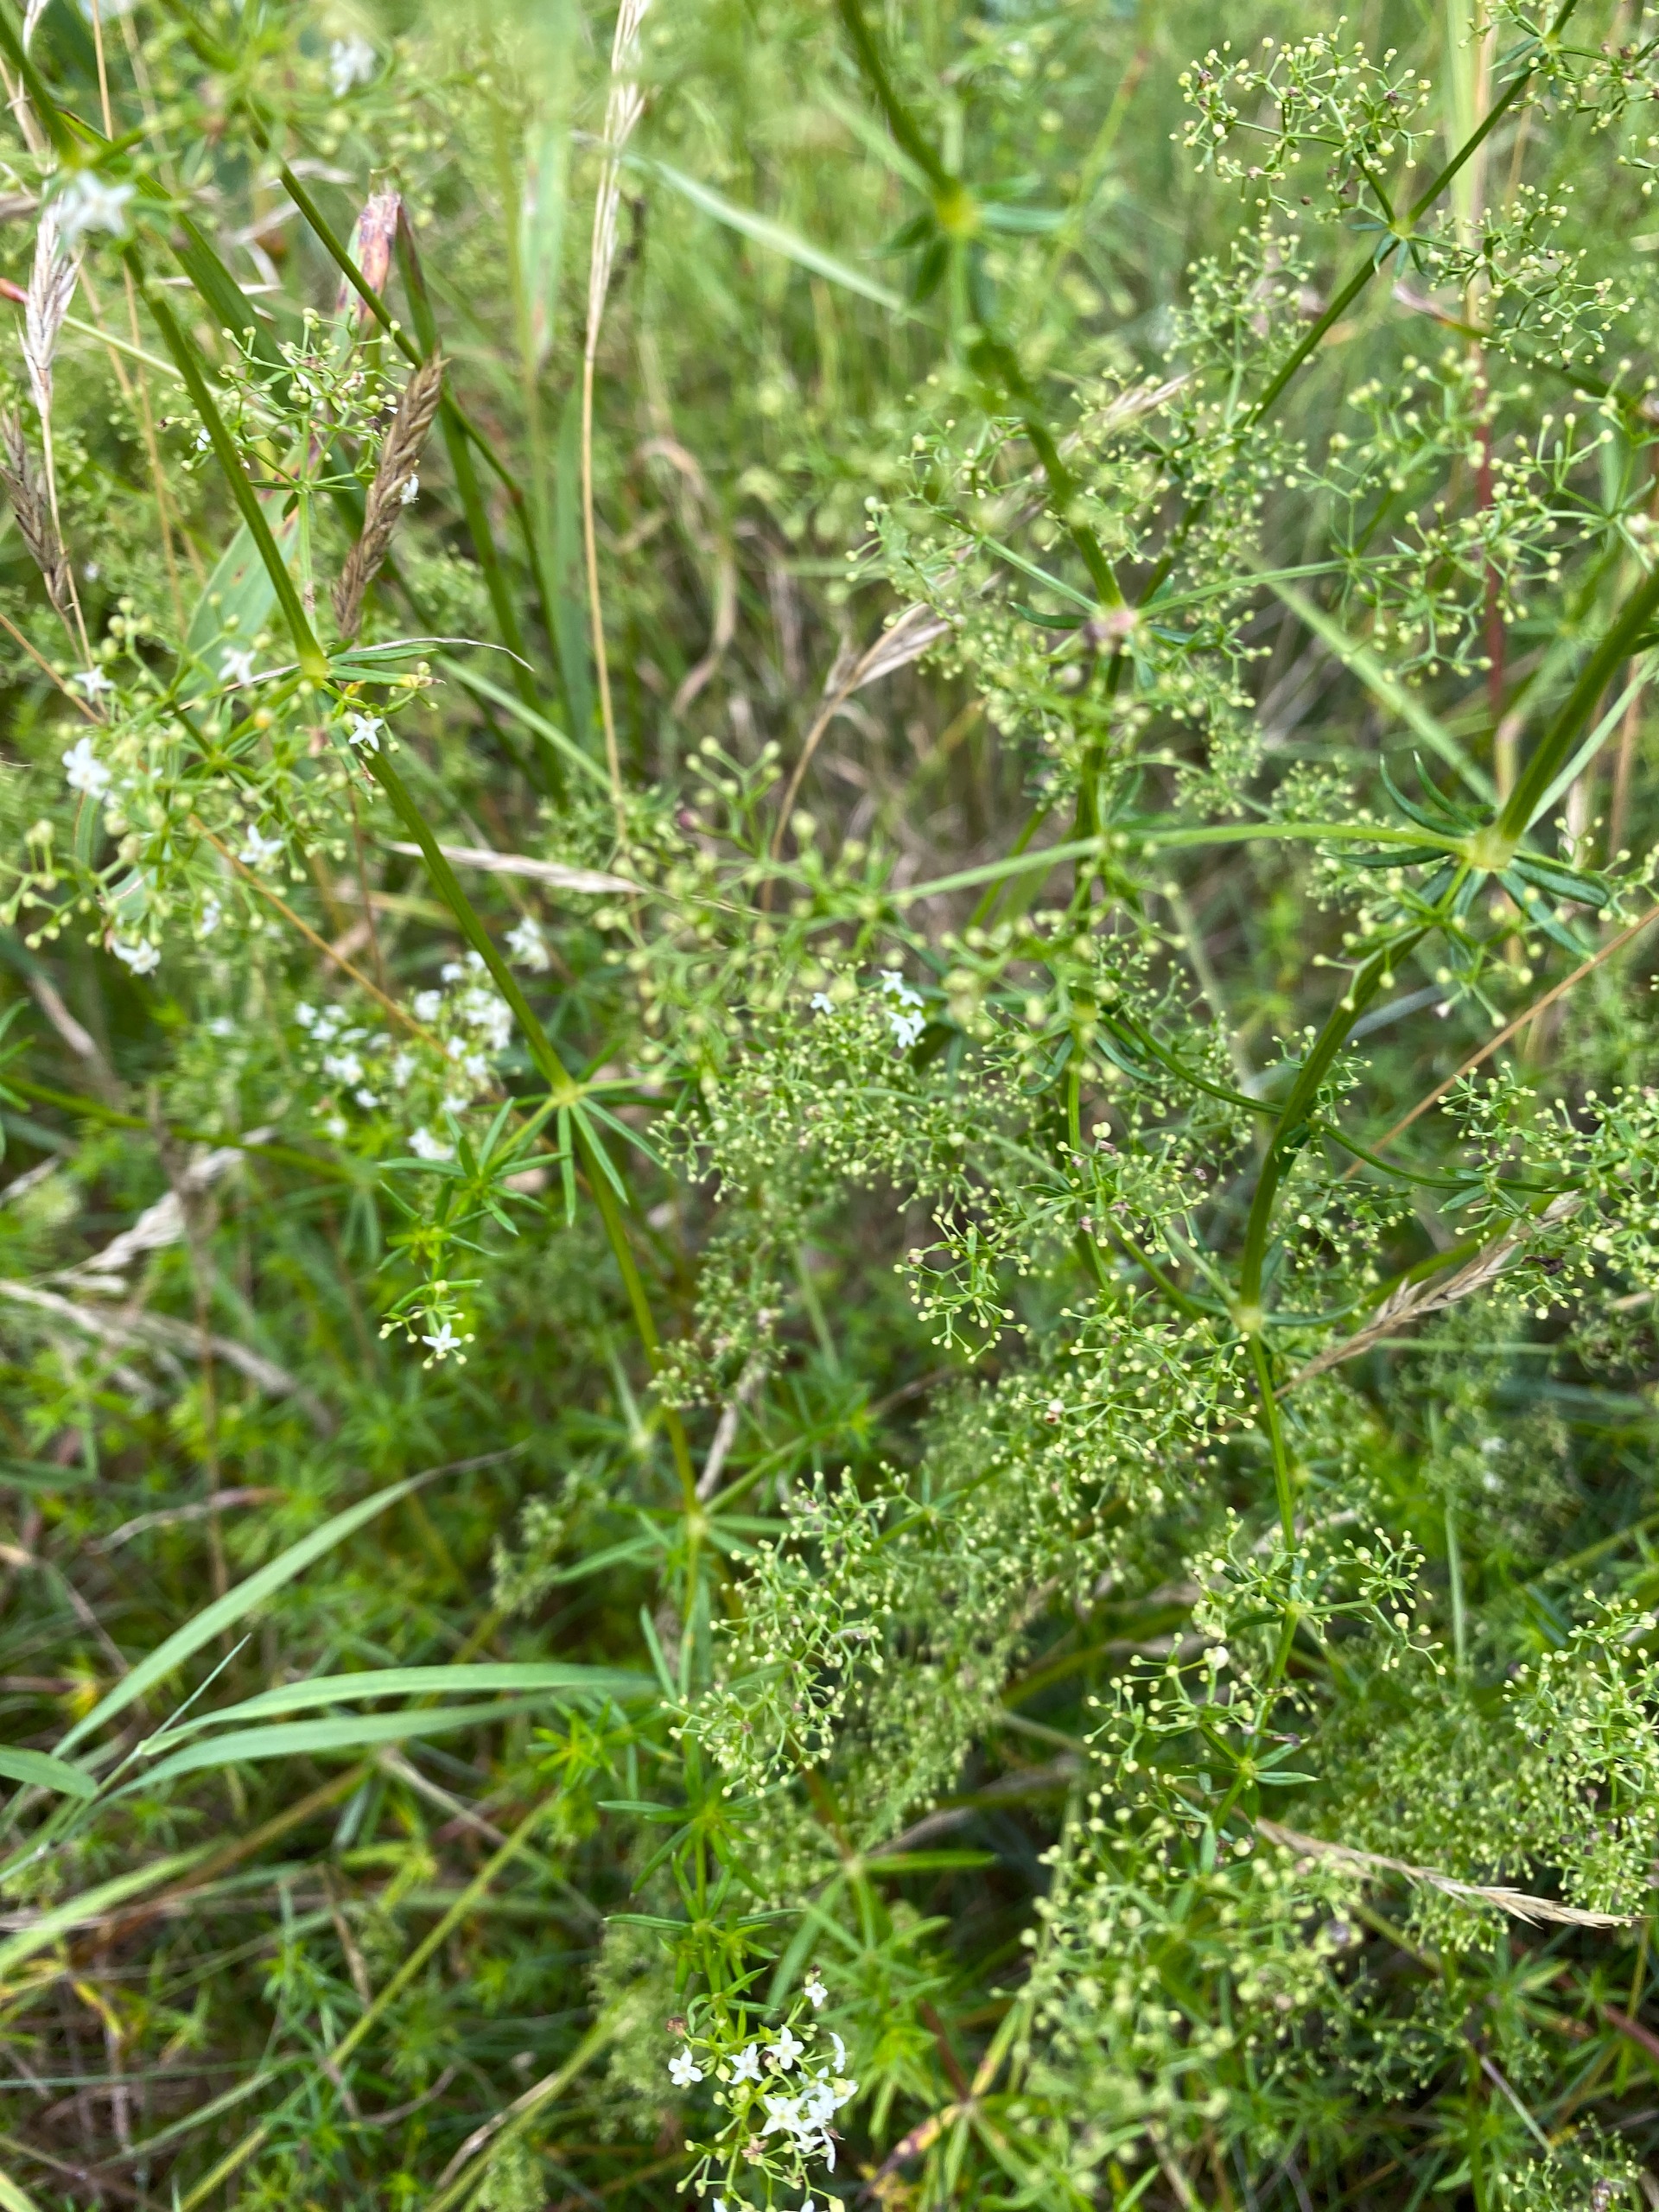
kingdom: Plantae
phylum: Tracheophyta
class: Magnoliopsida
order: Gentianales
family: Rubiaceae
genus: Galium
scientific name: Galium mollugo
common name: Hvid snerre
